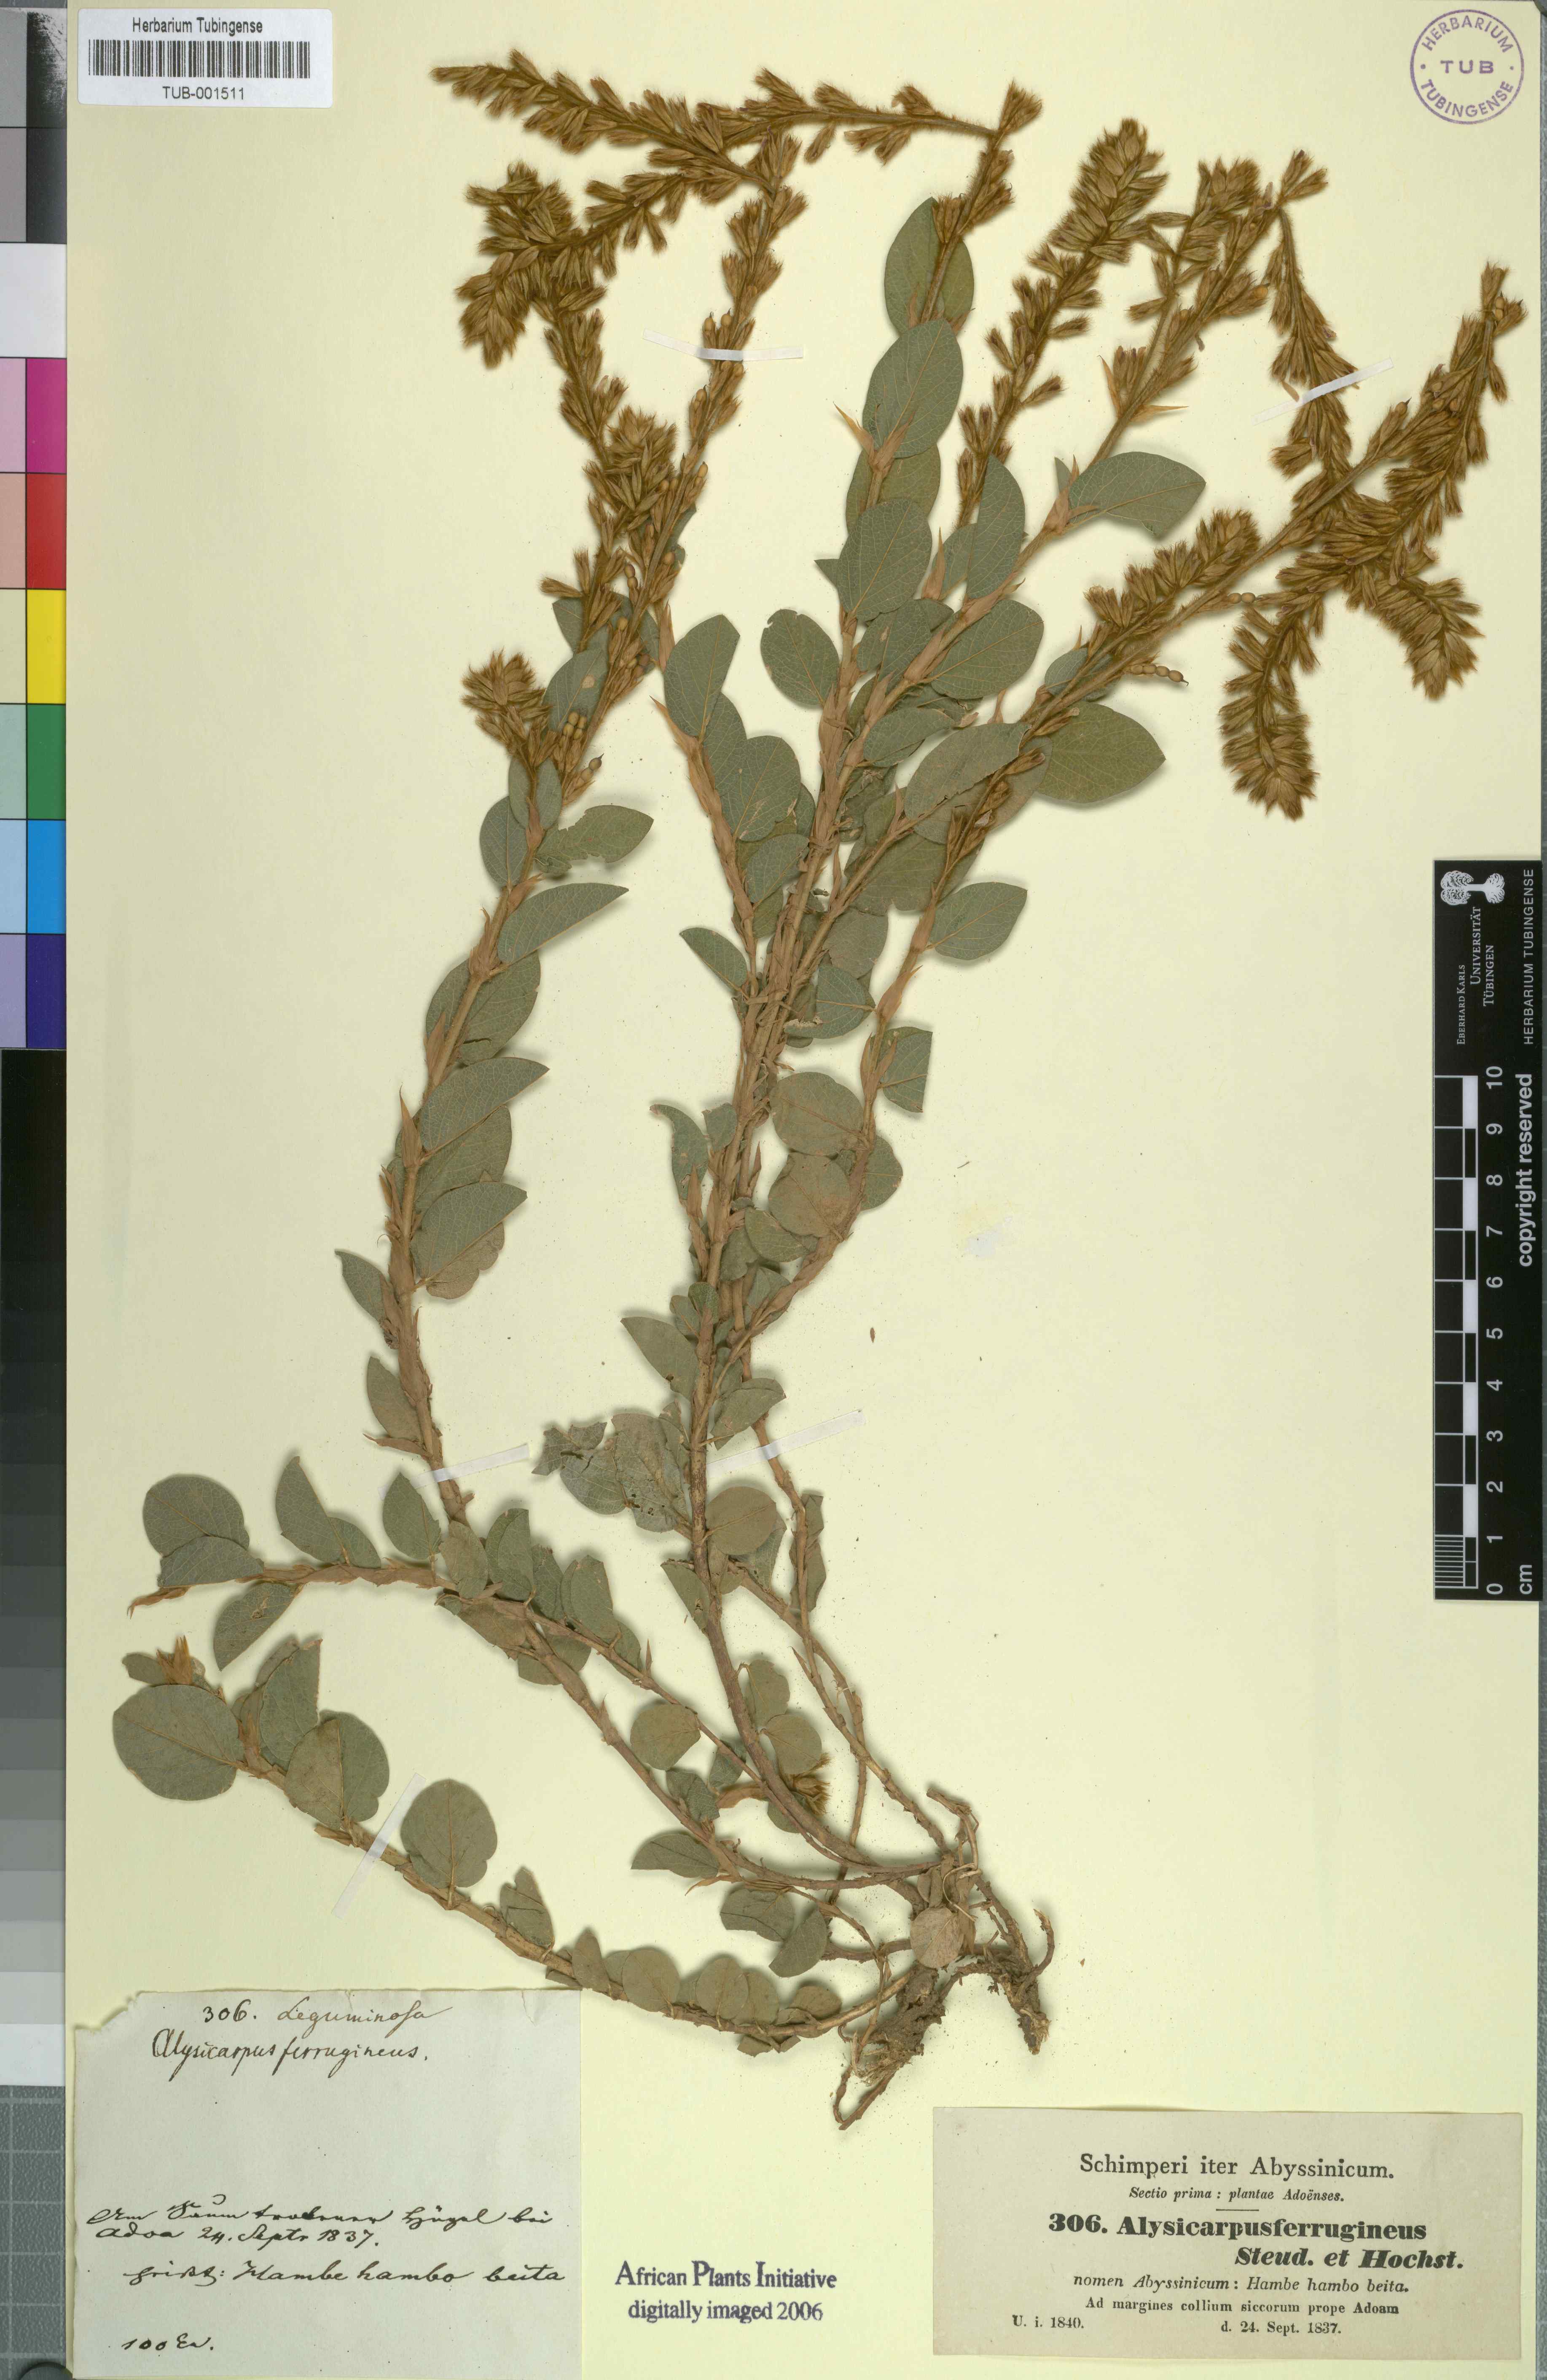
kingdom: Plantae
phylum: Tracheophyta
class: Magnoliopsida
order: Fabales
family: Fabaceae
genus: Alysicarpus
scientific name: Alysicarpus ferrugineus
